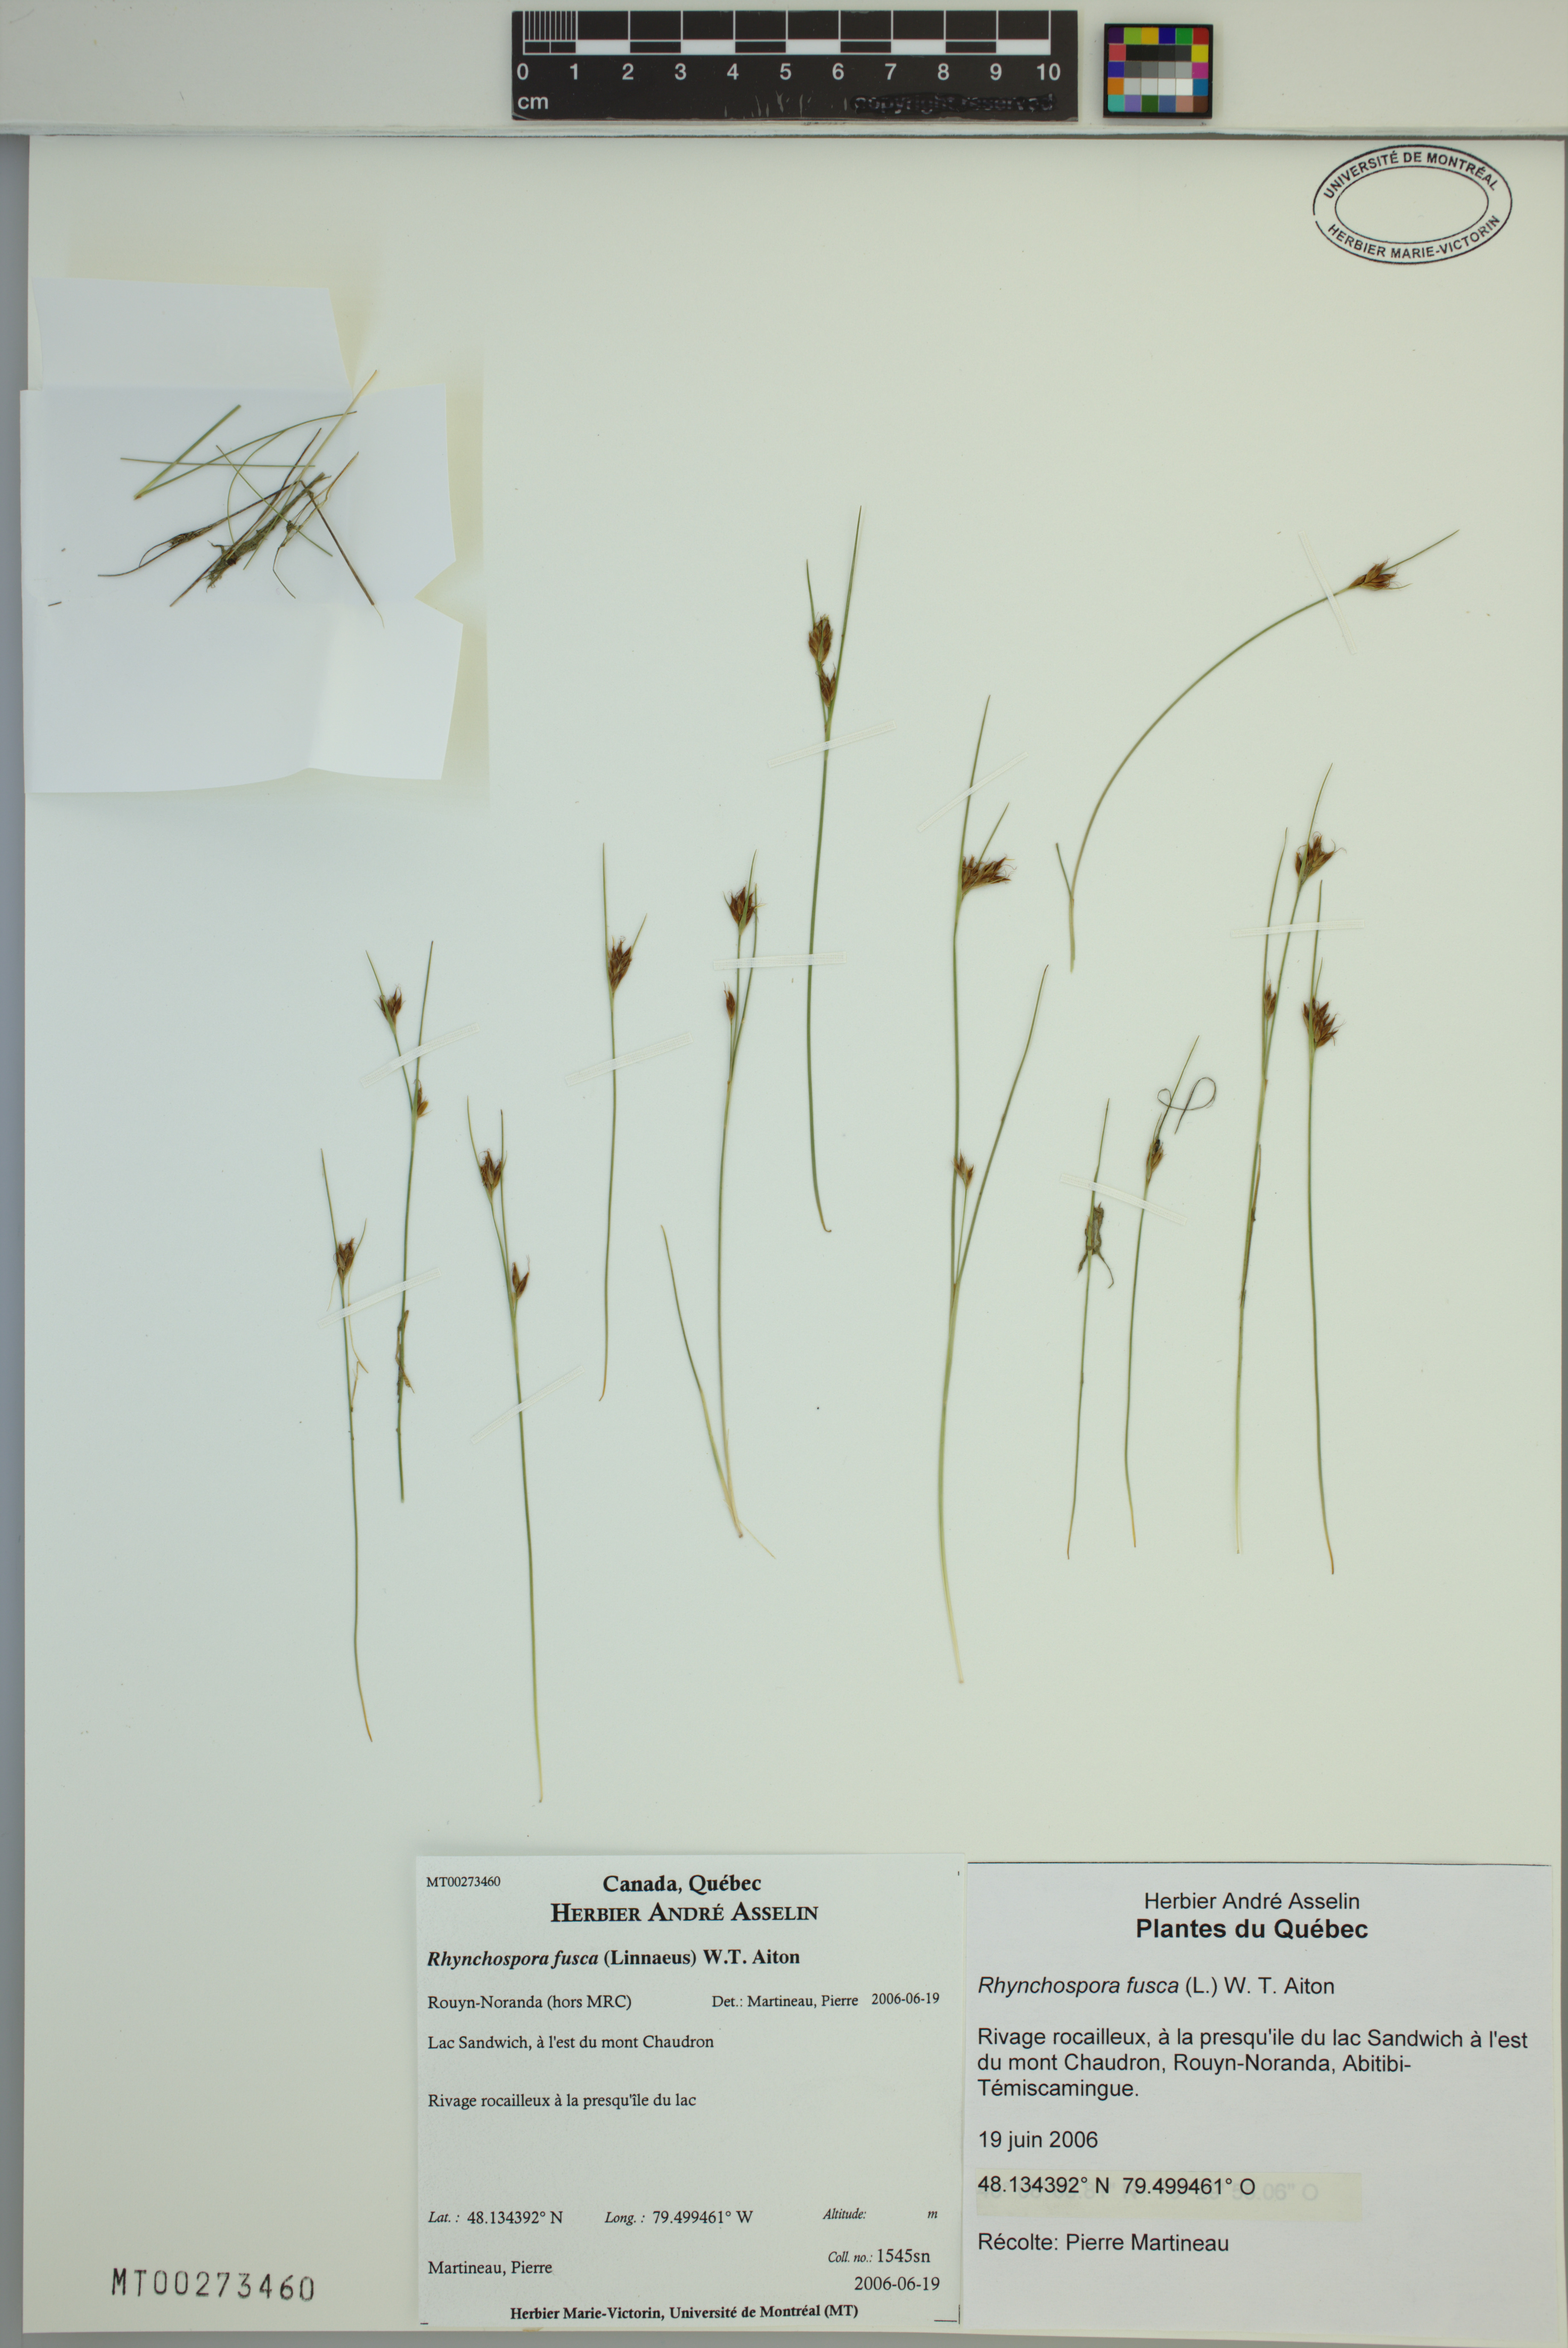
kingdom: Plantae
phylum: Tracheophyta
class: Liliopsida
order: Poales
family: Cyperaceae
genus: Rhynchospora
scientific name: Rhynchospora fusca
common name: Brown beak-sedge
